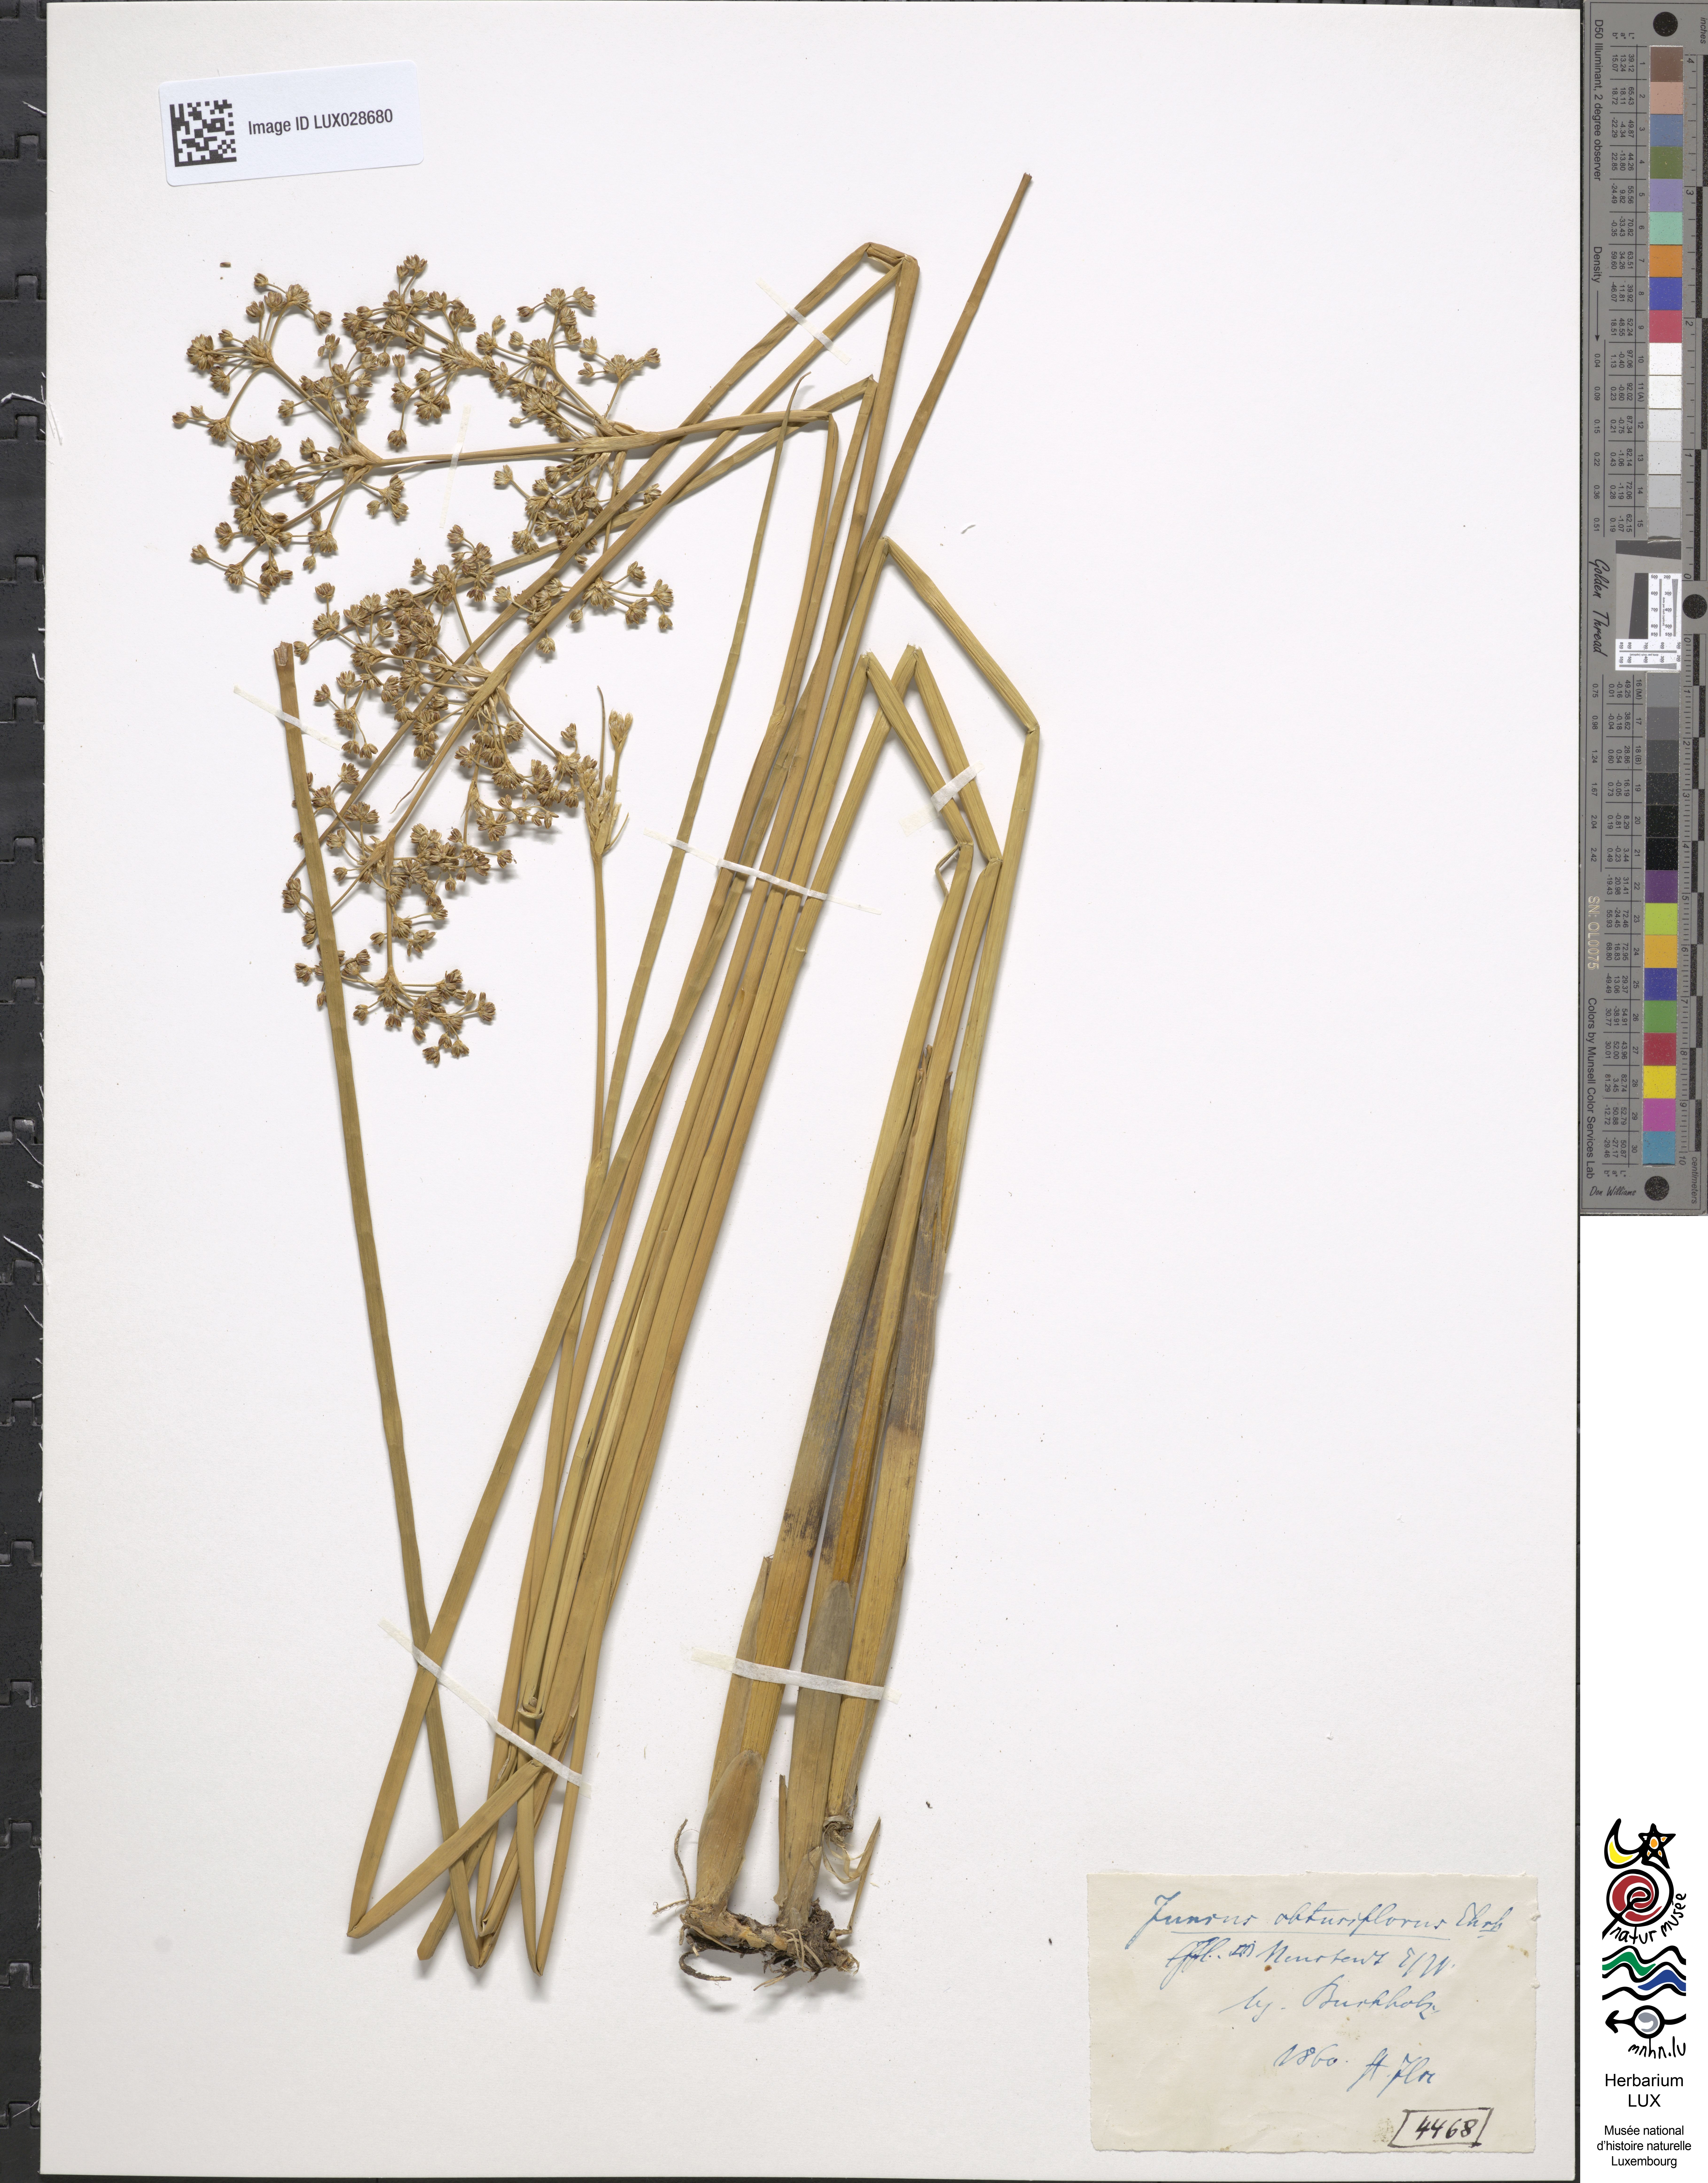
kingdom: Plantae
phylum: Tracheophyta
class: Liliopsida
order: Poales
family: Juncaceae
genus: Juncus
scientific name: Juncus subnodulosus
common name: Blunt-flowered rush
